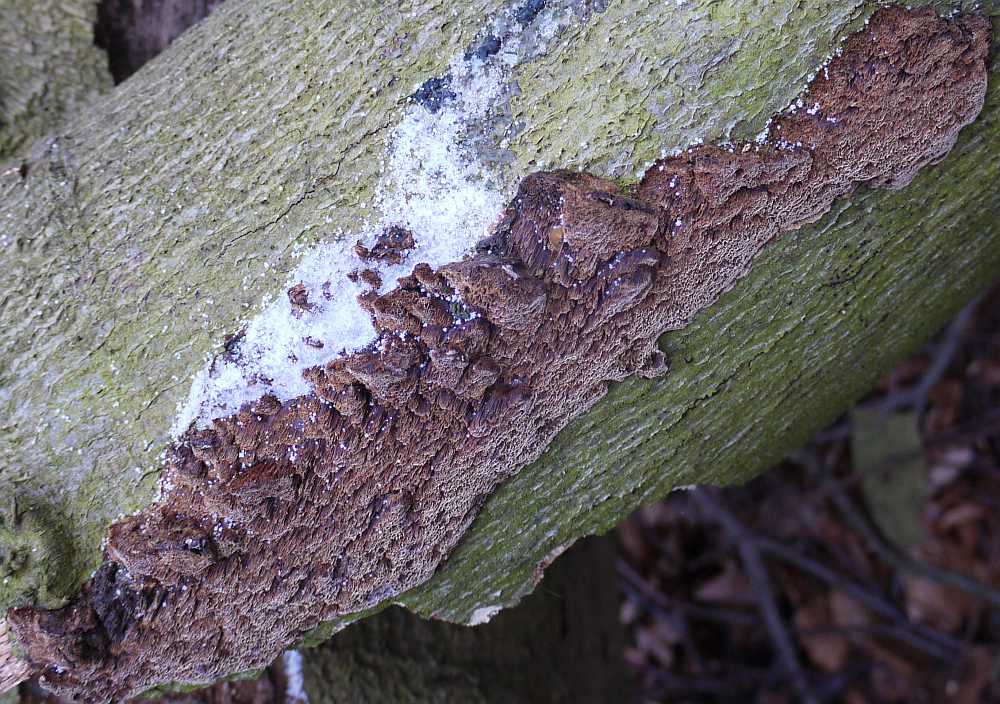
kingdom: Fungi
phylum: Basidiomycota
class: Agaricomycetes
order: Hymenochaetales
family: Hymenochaetaceae
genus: Mensularia
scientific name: Mensularia nodulosa
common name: bøge-spejlporesvamp
